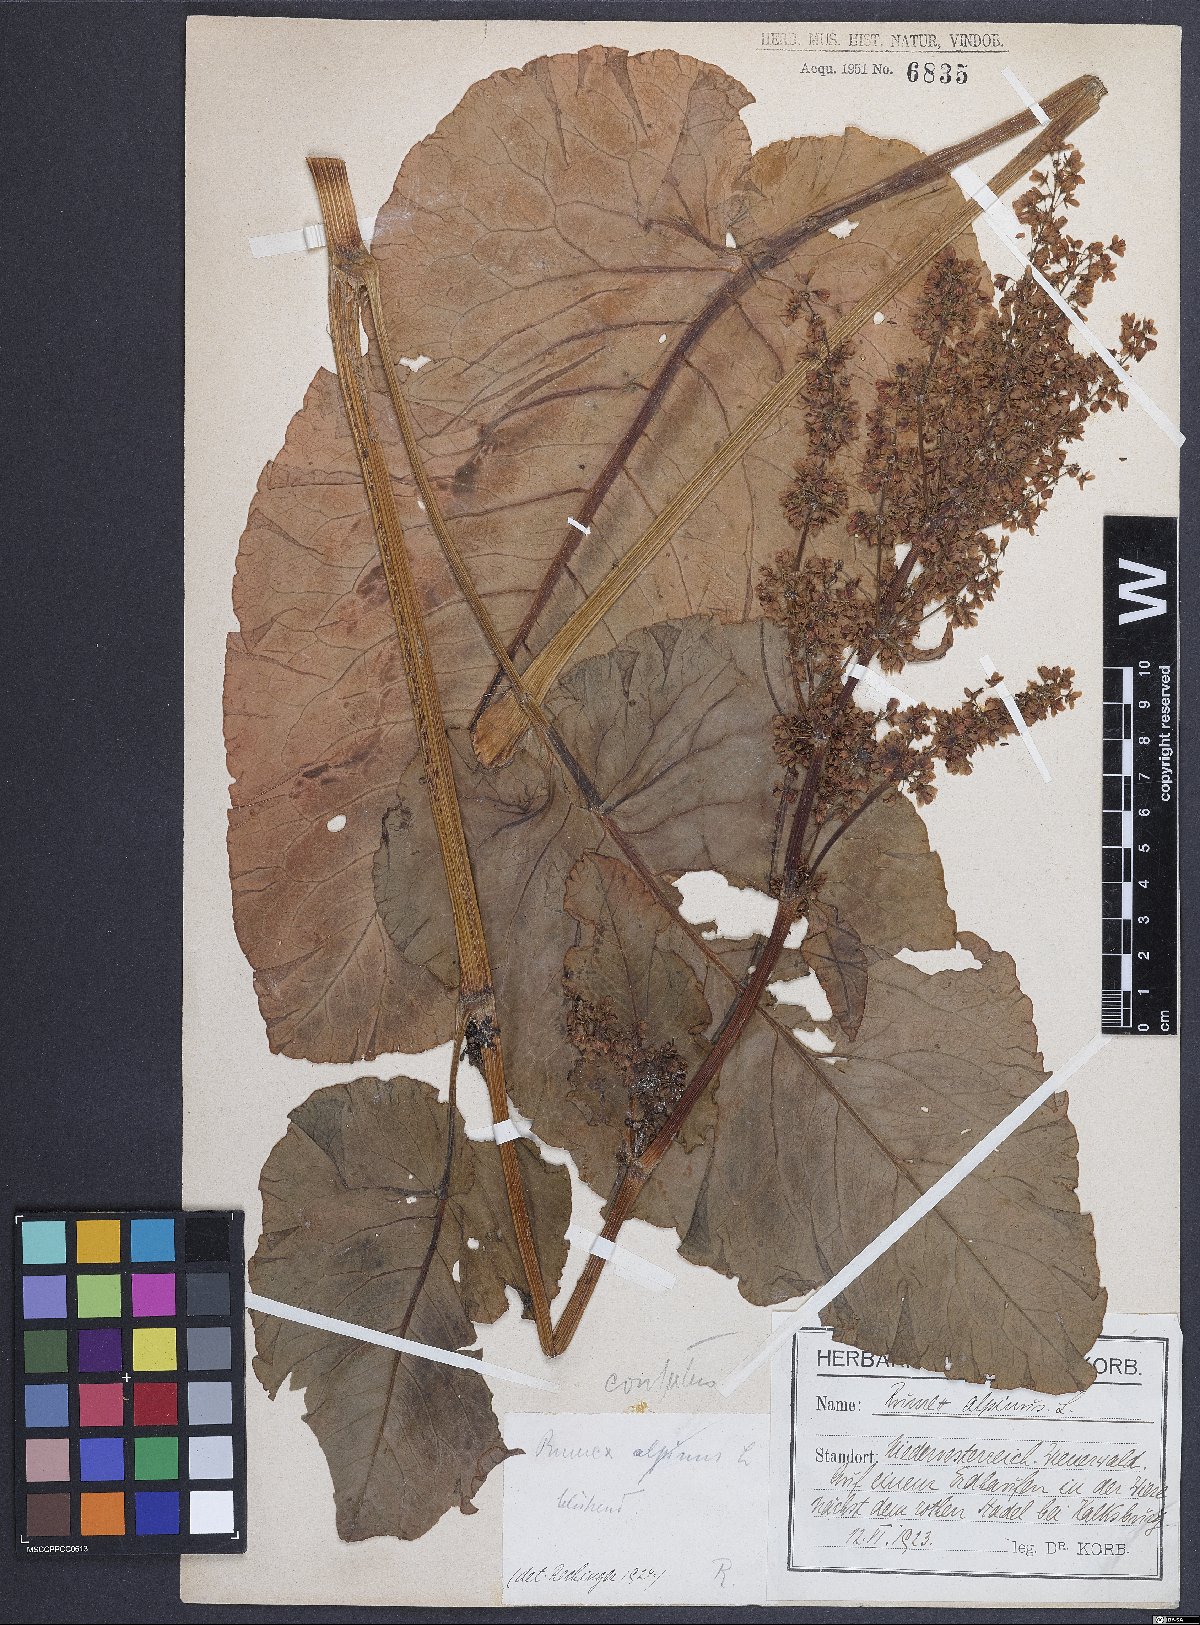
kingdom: Plantae
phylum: Tracheophyta
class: Magnoliopsida
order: Caryophyllales
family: Polygonaceae
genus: Rumex
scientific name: Rumex confertus
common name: Russian dock
